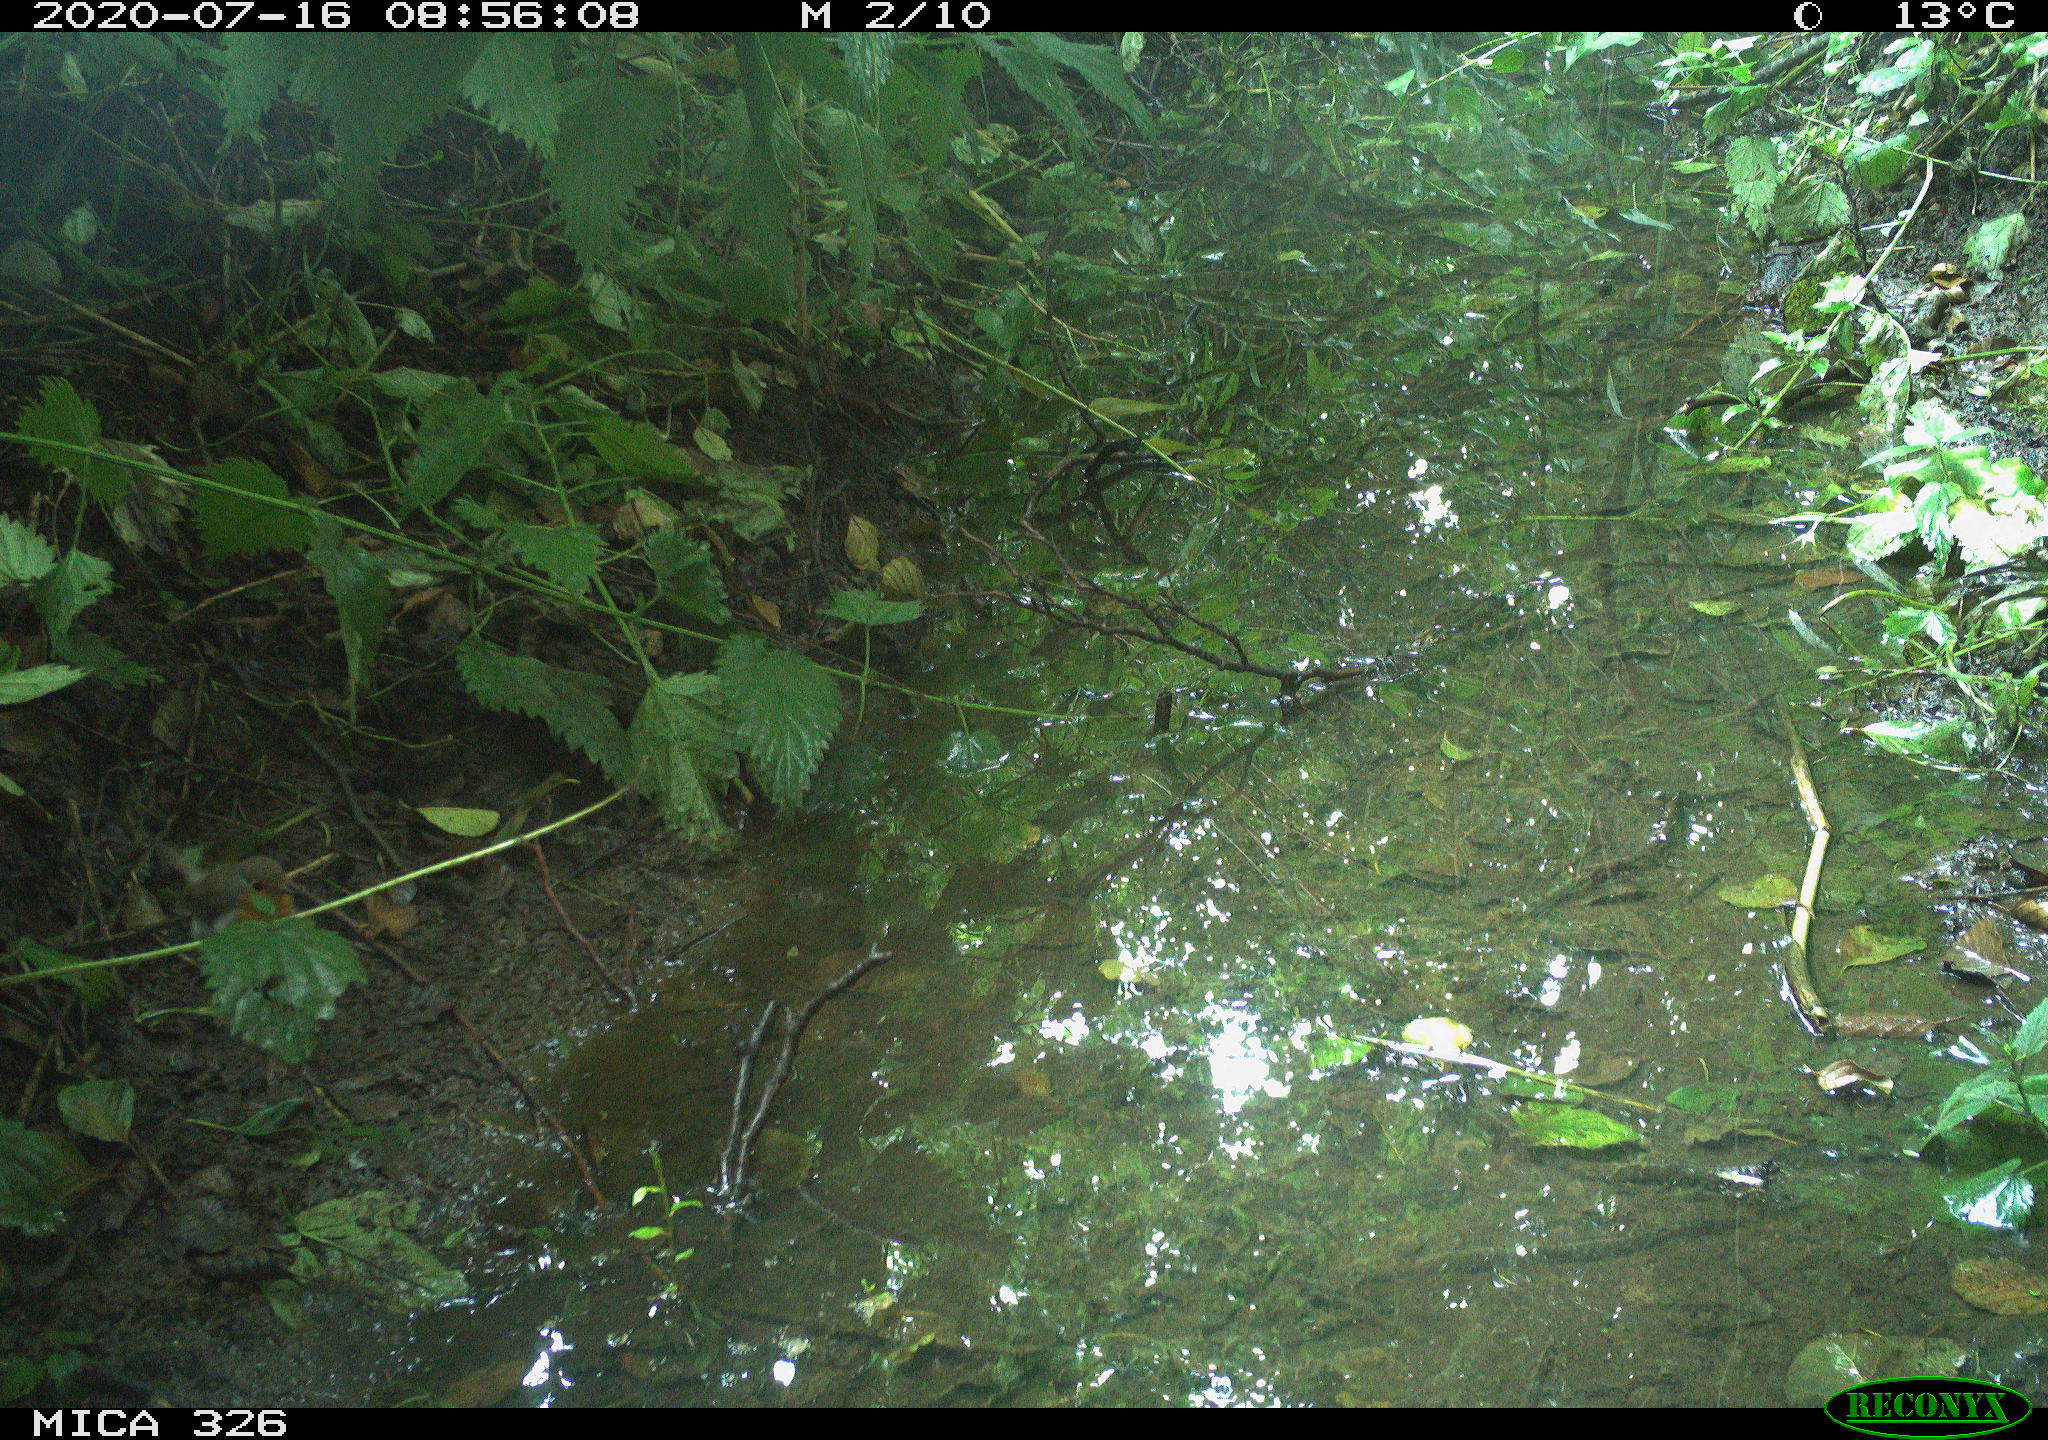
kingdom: Animalia
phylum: Chordata
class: Aves
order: Passeriformes
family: Muscicapidae
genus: Erithacus
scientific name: Erithacus rubecula
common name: European robin
